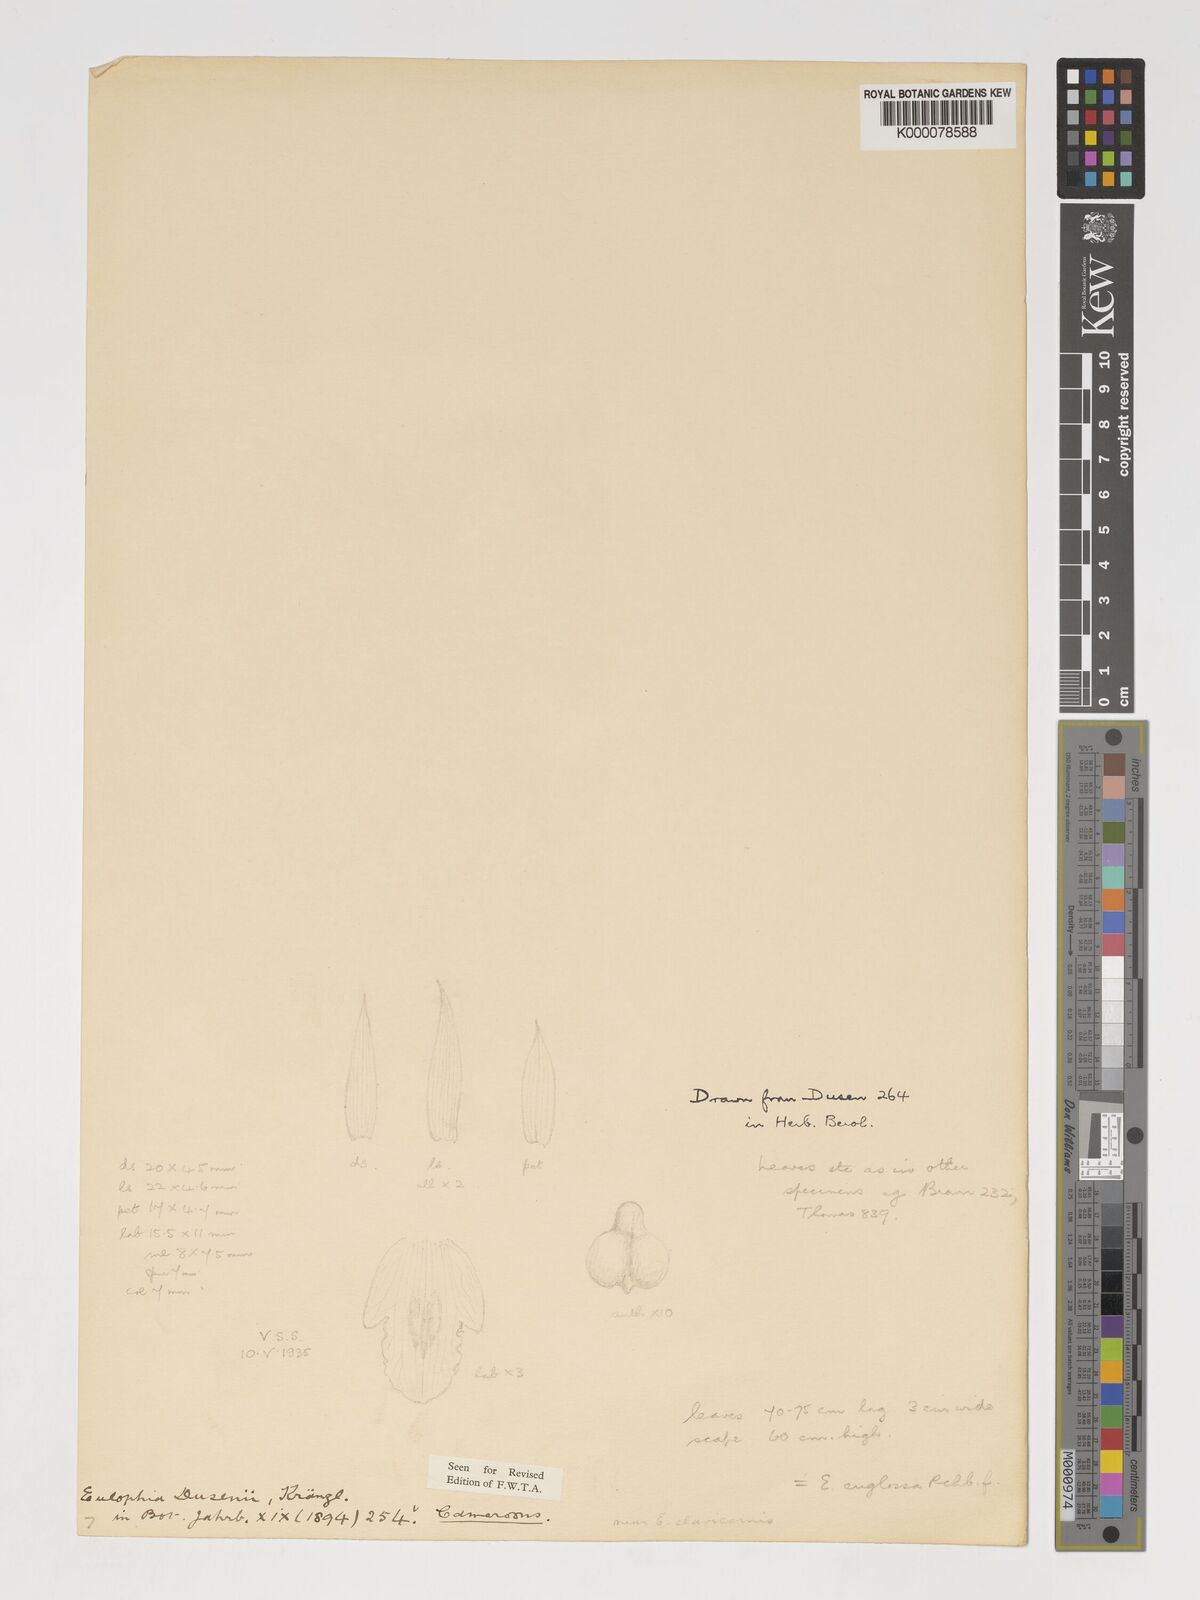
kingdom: Plantae
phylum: Tracheophyta
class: Liliopsida
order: Asparagales
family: Orchidaceae
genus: Eulophia
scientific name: Eulophia
